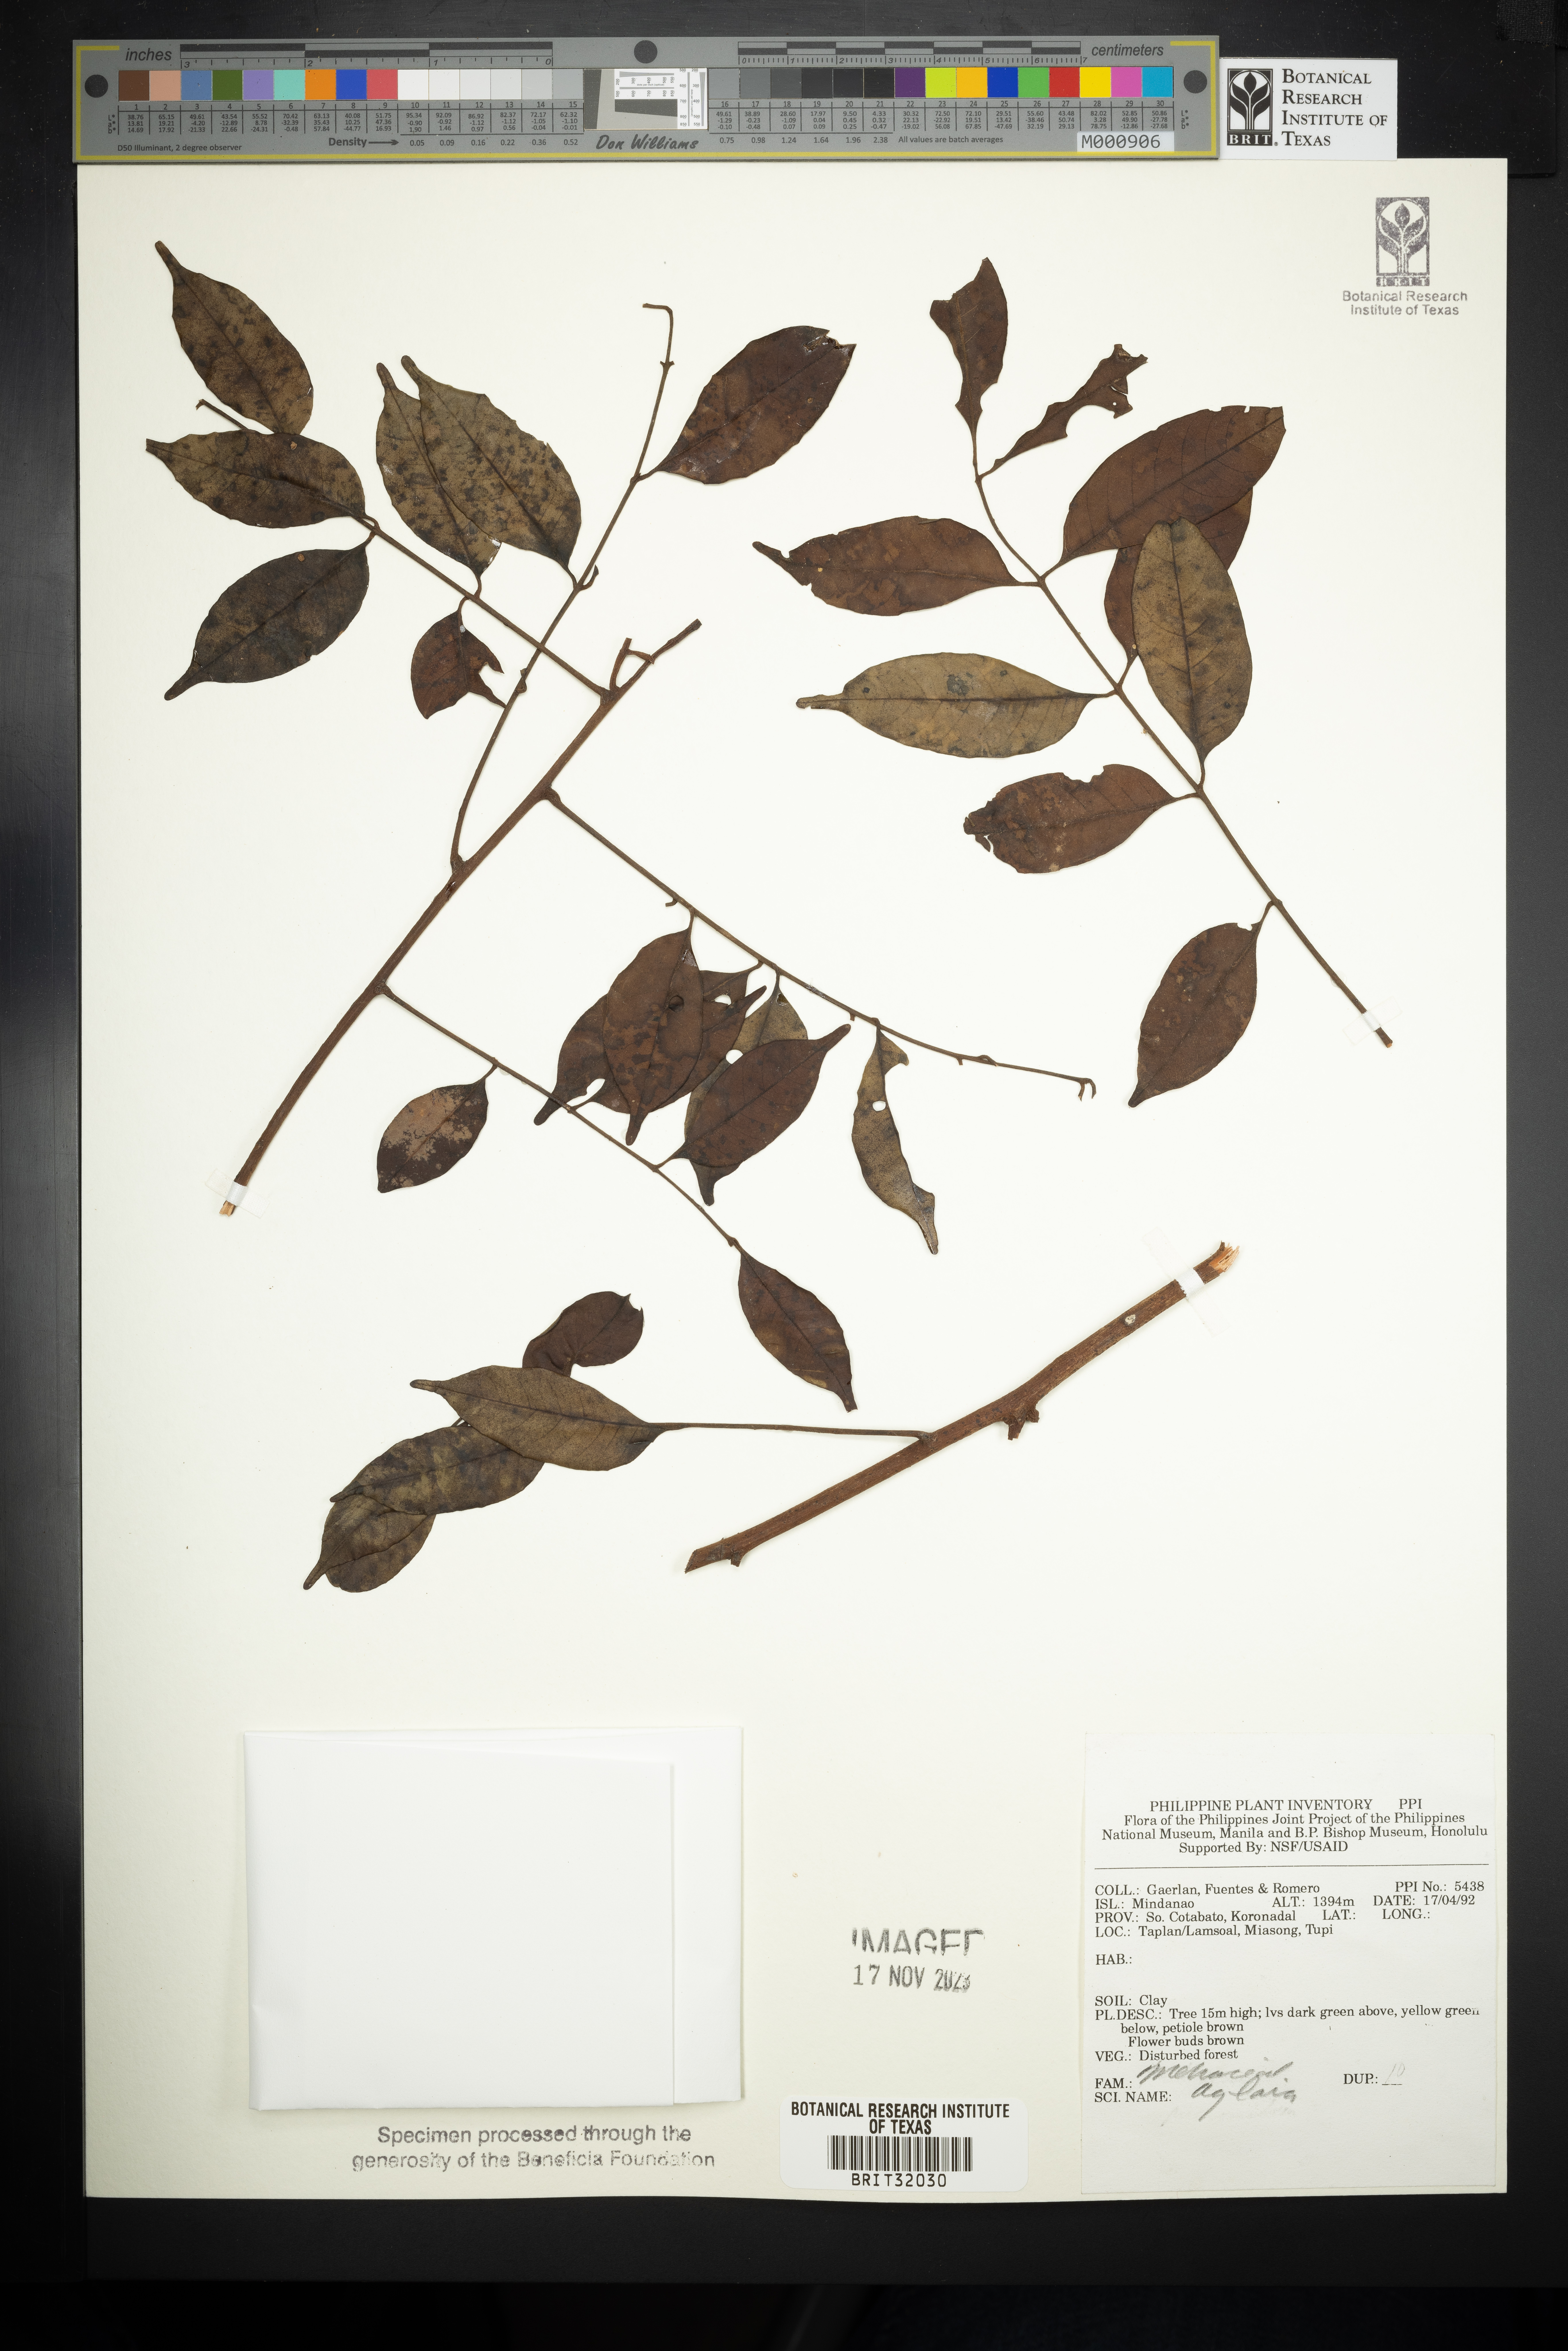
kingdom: Plantae
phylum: Tracheophyta
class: Magnoliopsida
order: Sapindales
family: Meliaceae
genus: Aglaia
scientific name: Aglaia
